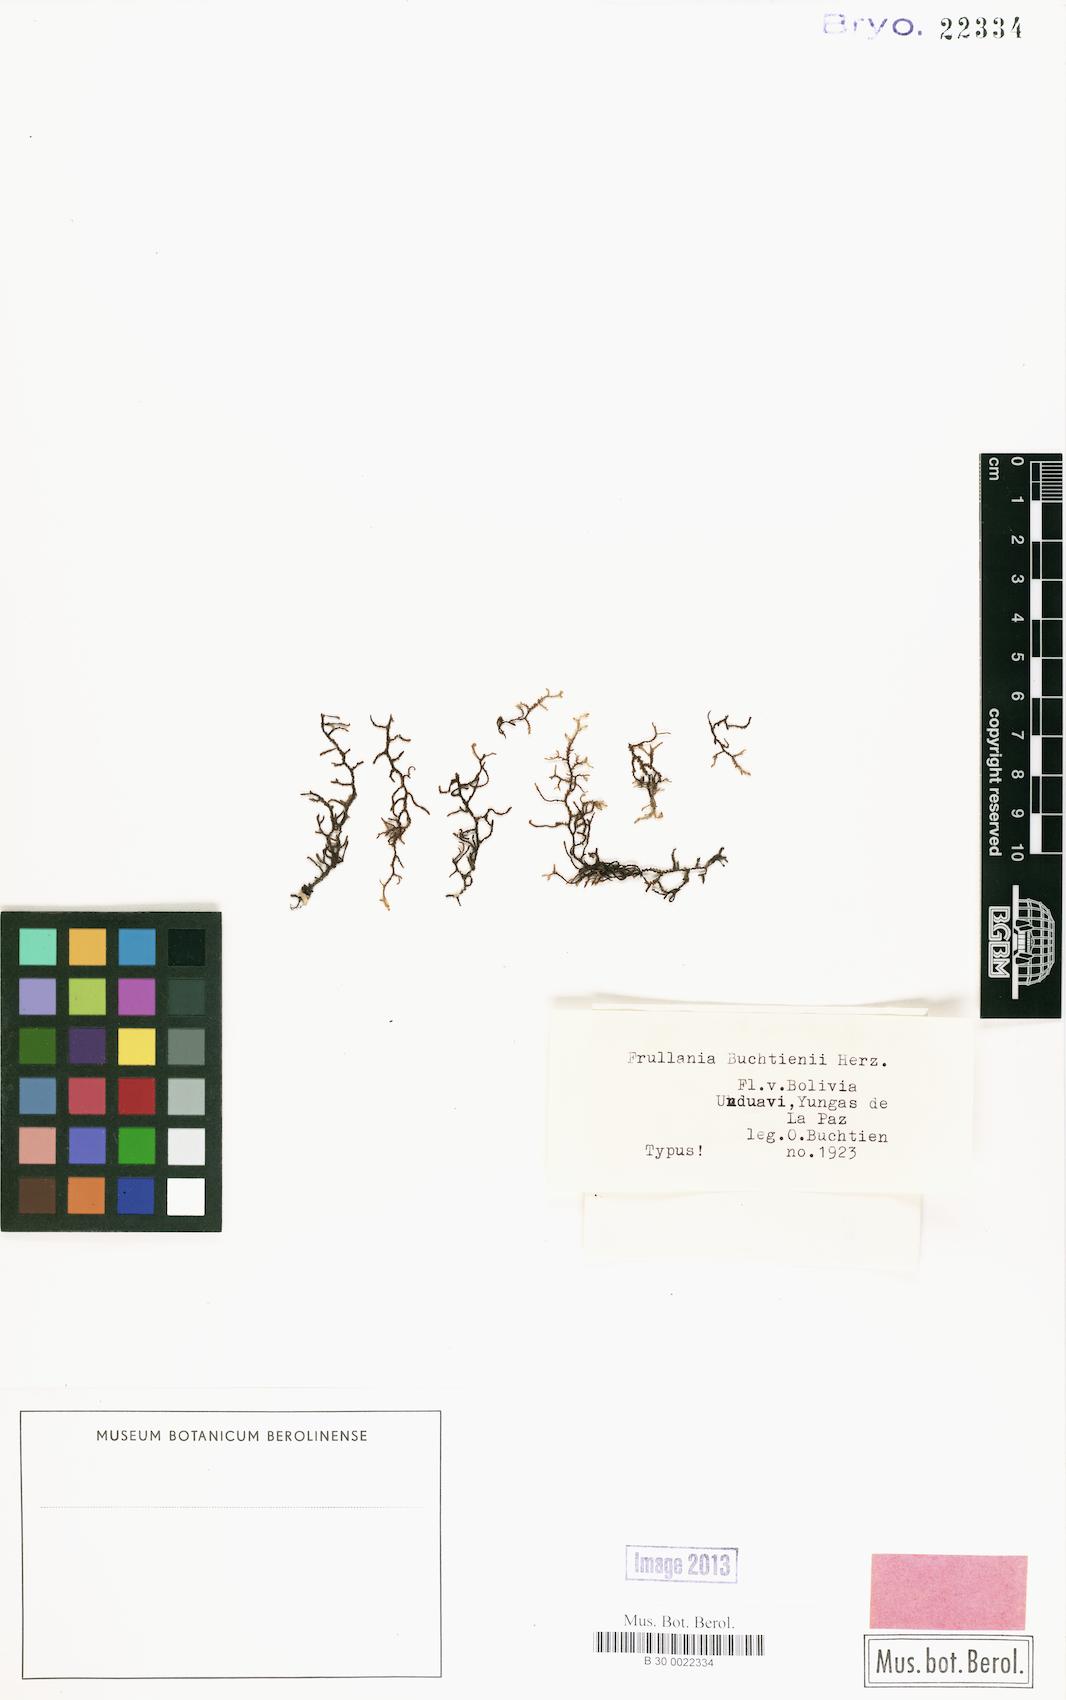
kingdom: Plantae
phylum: Marchantiophyta
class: Jungermanniopsida
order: Porellales
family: Frullaniaceae
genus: Frullania
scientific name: Frullania buchtienii
